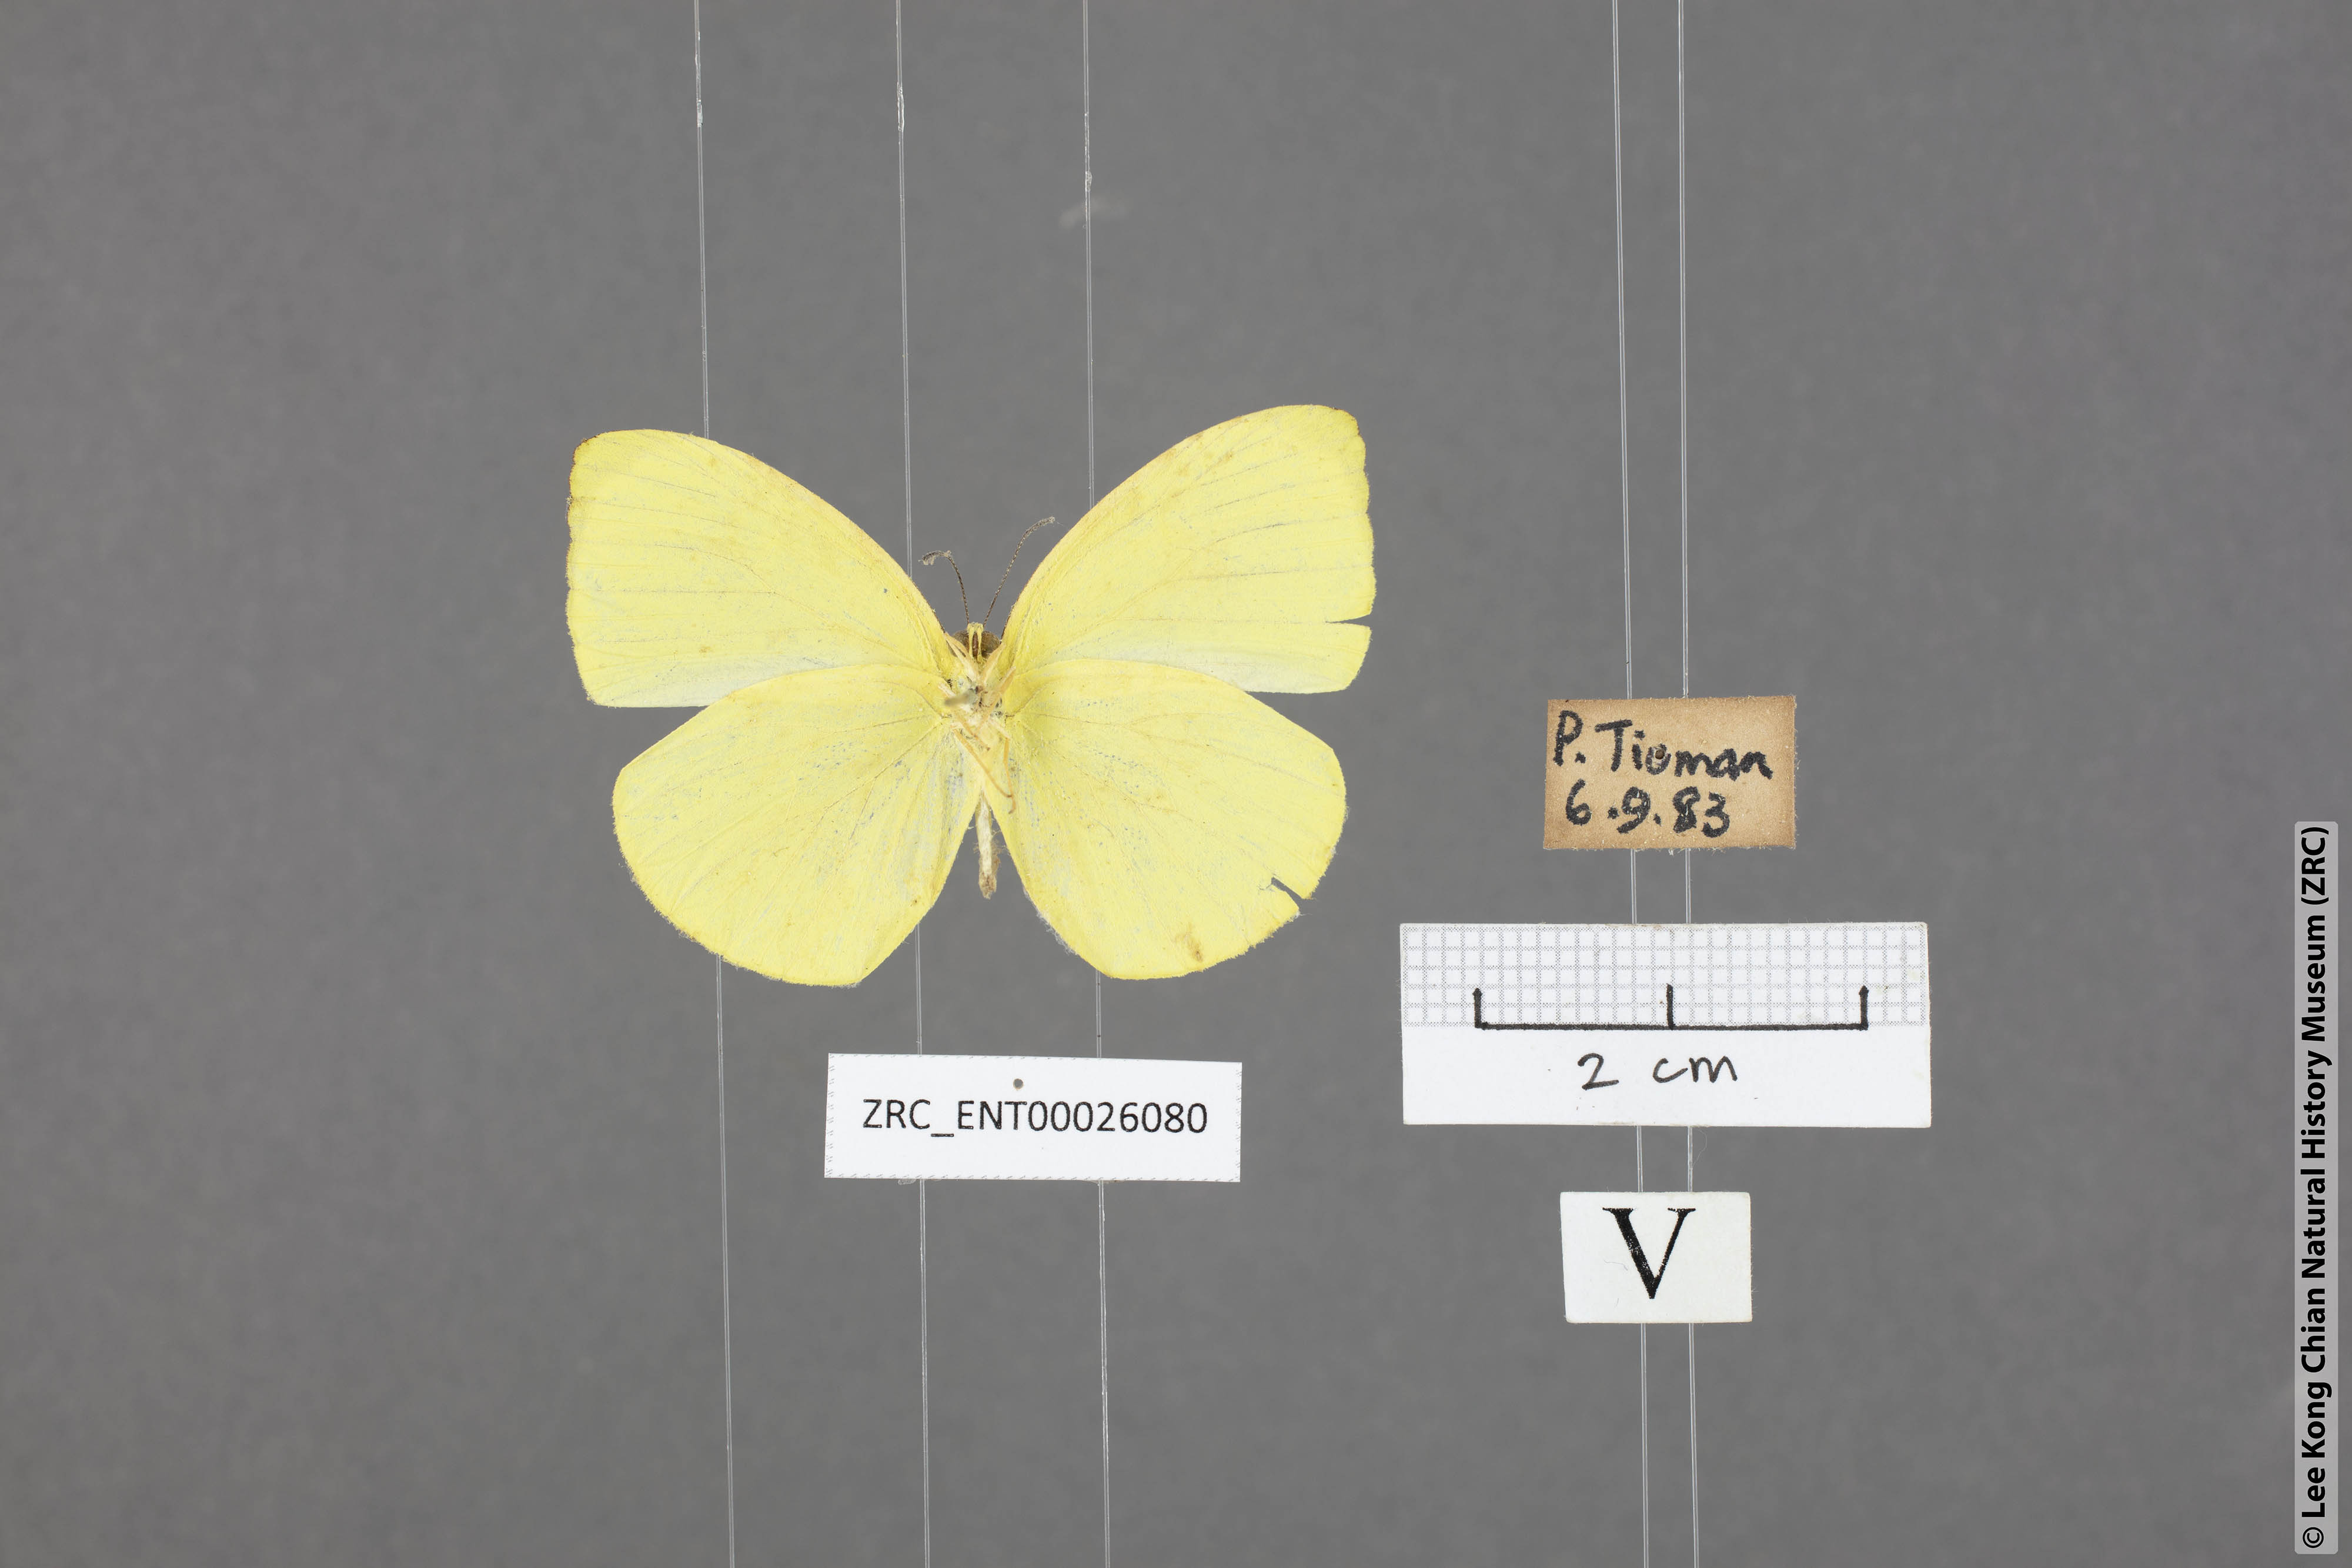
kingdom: Animalia
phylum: Arthropoda
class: Insecta
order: Lepidoptera
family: Pieridae
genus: Gandaca
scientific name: Gandaca harina
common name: Tree yellow
